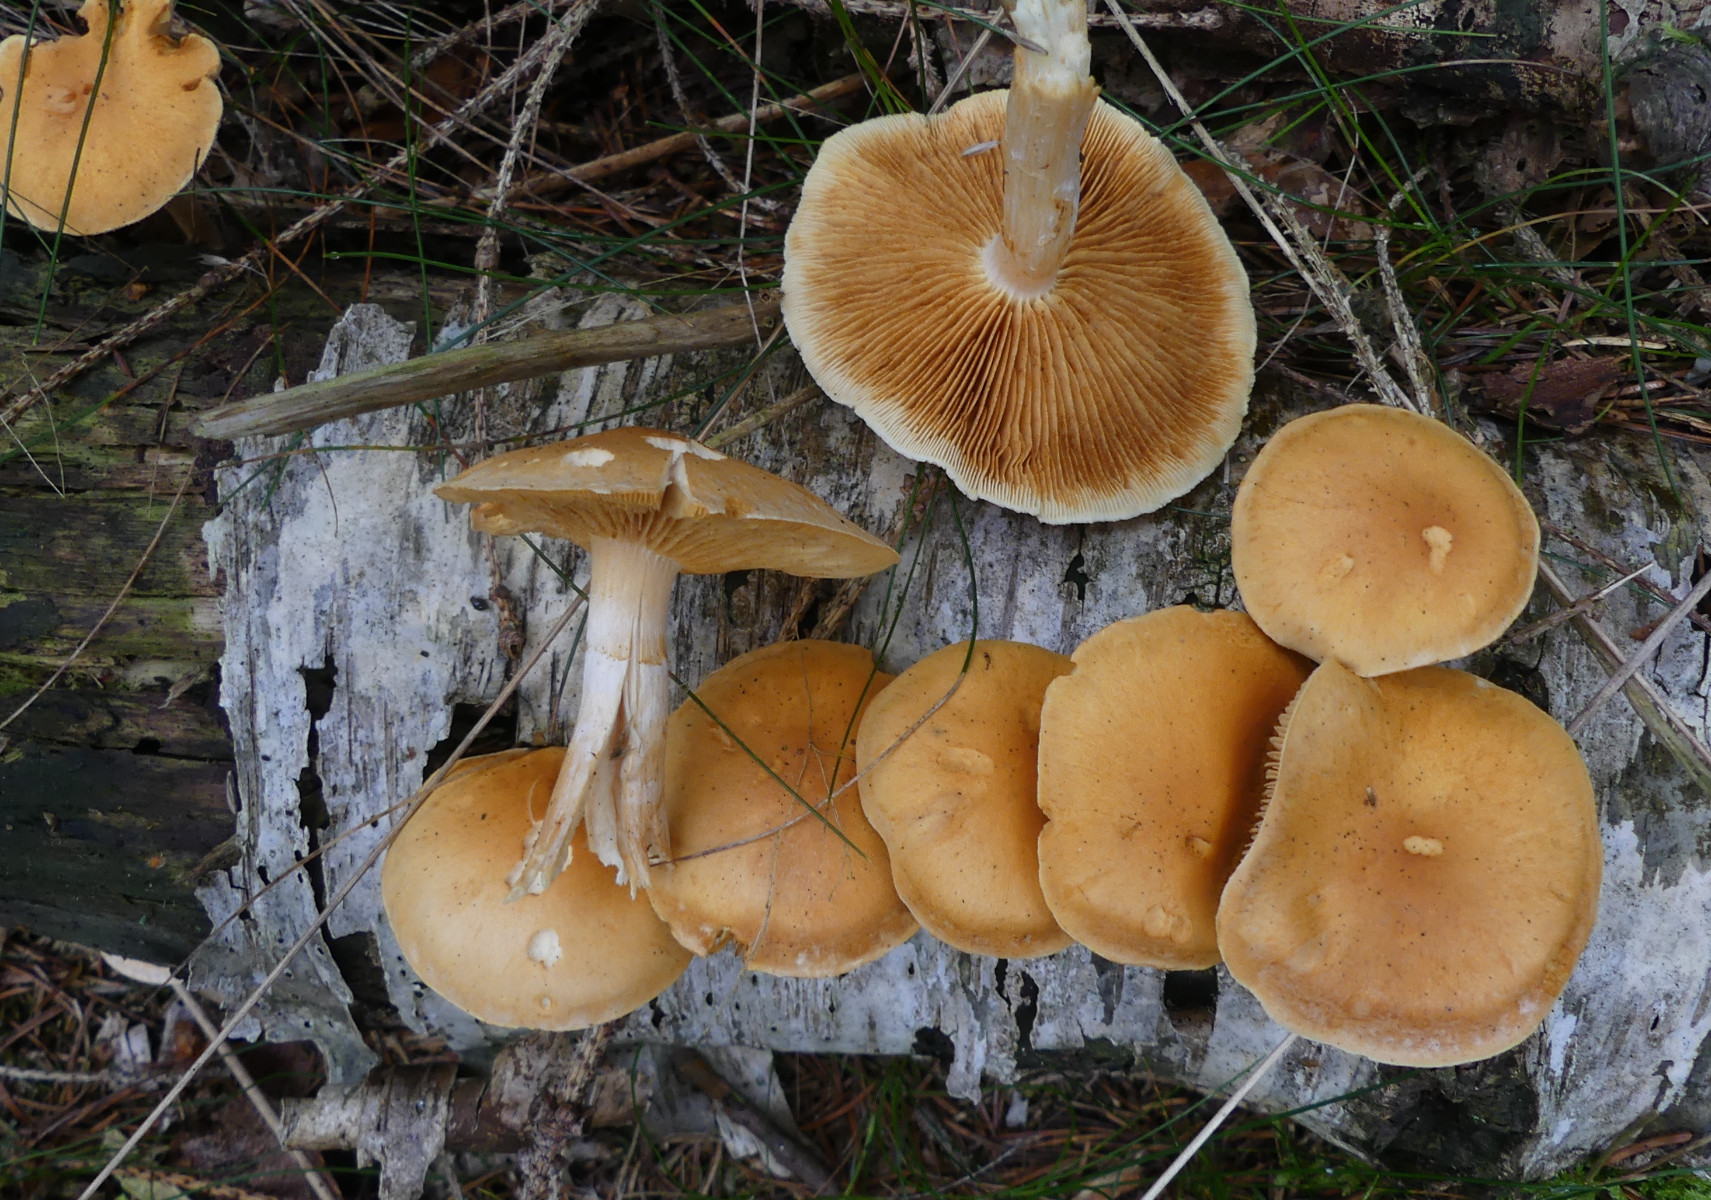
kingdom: Fungi
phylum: Basidiomycota
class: Agaricomycetes
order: Agaricales
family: Hymenogastraceae
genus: Gymnopilus
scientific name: Gymnopilus penetrans
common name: plettet flammehat
